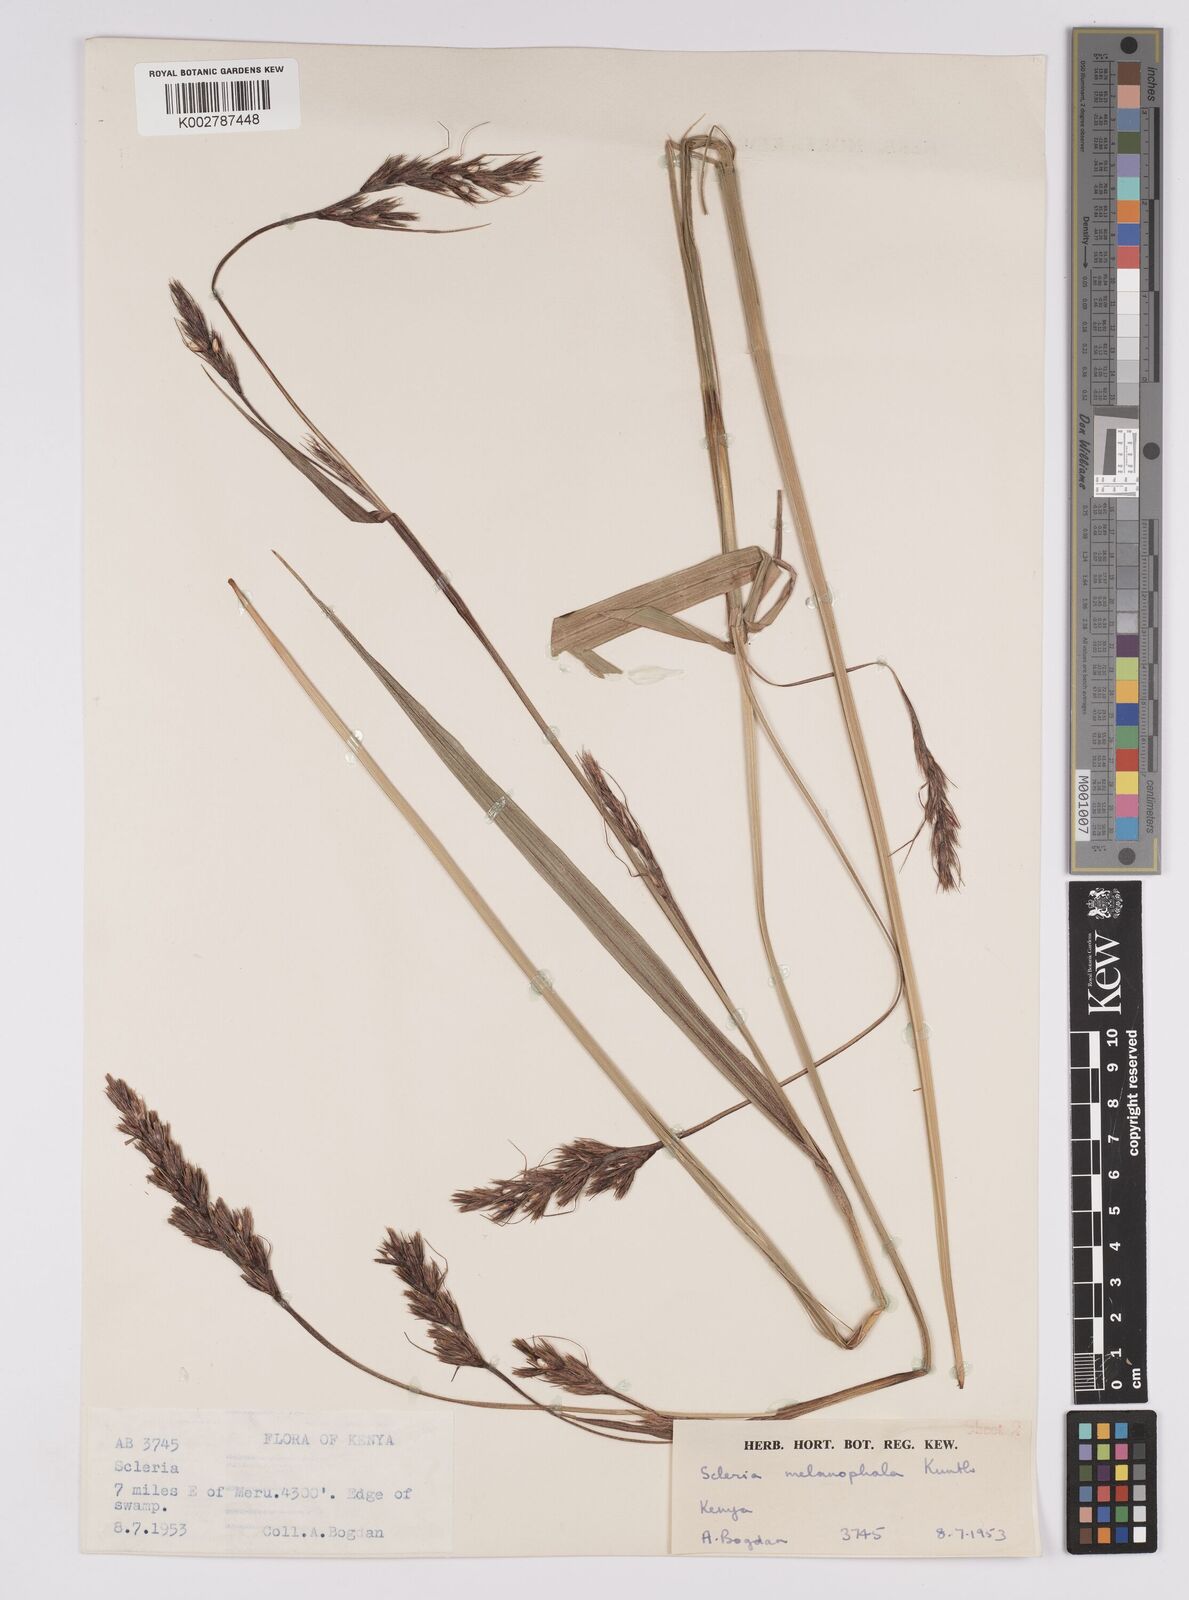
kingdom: Plantae
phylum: Tracheophyta
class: Liliopsida
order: Poales
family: Cyperaceae
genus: Scleria
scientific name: Scleria melanomphala
